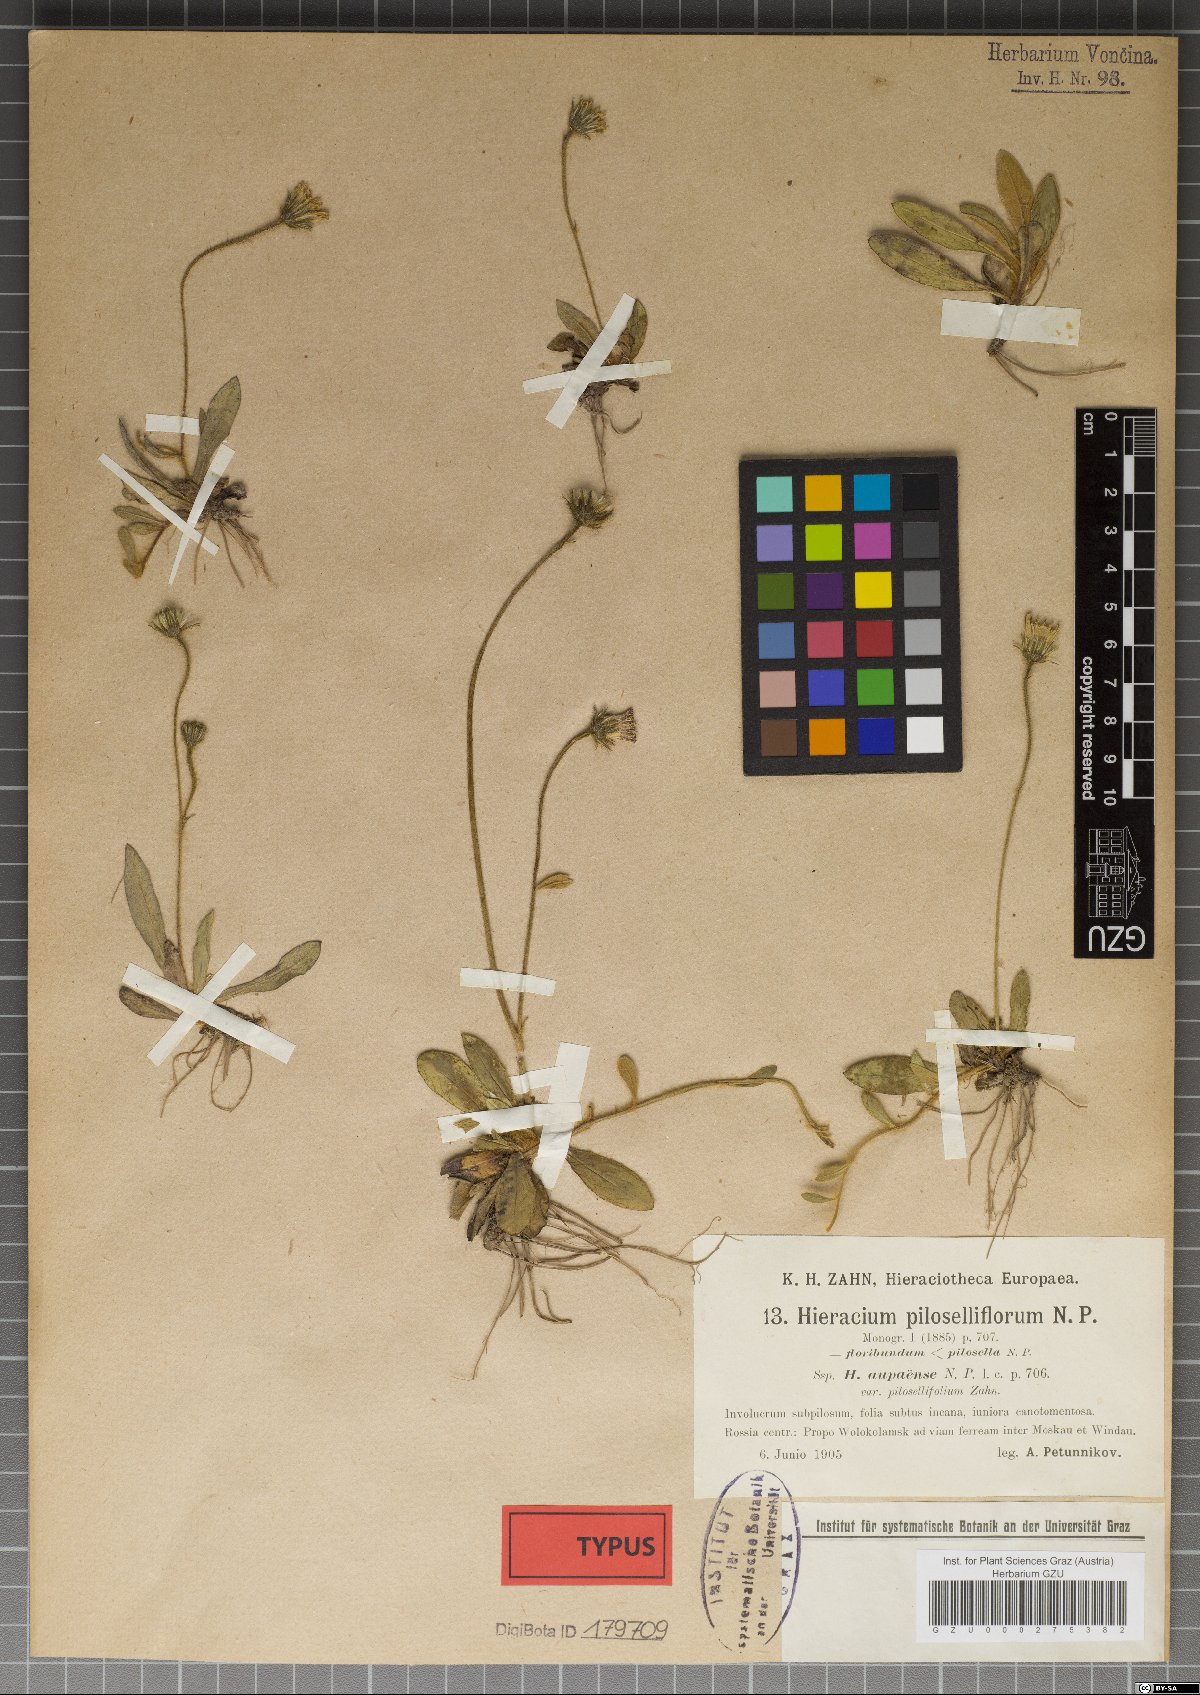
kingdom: Plantae
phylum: Tracheophyta
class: Magnoliopsida
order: Asterales
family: Asteraceae
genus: Pilosella
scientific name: Pilosella piloselliflora
